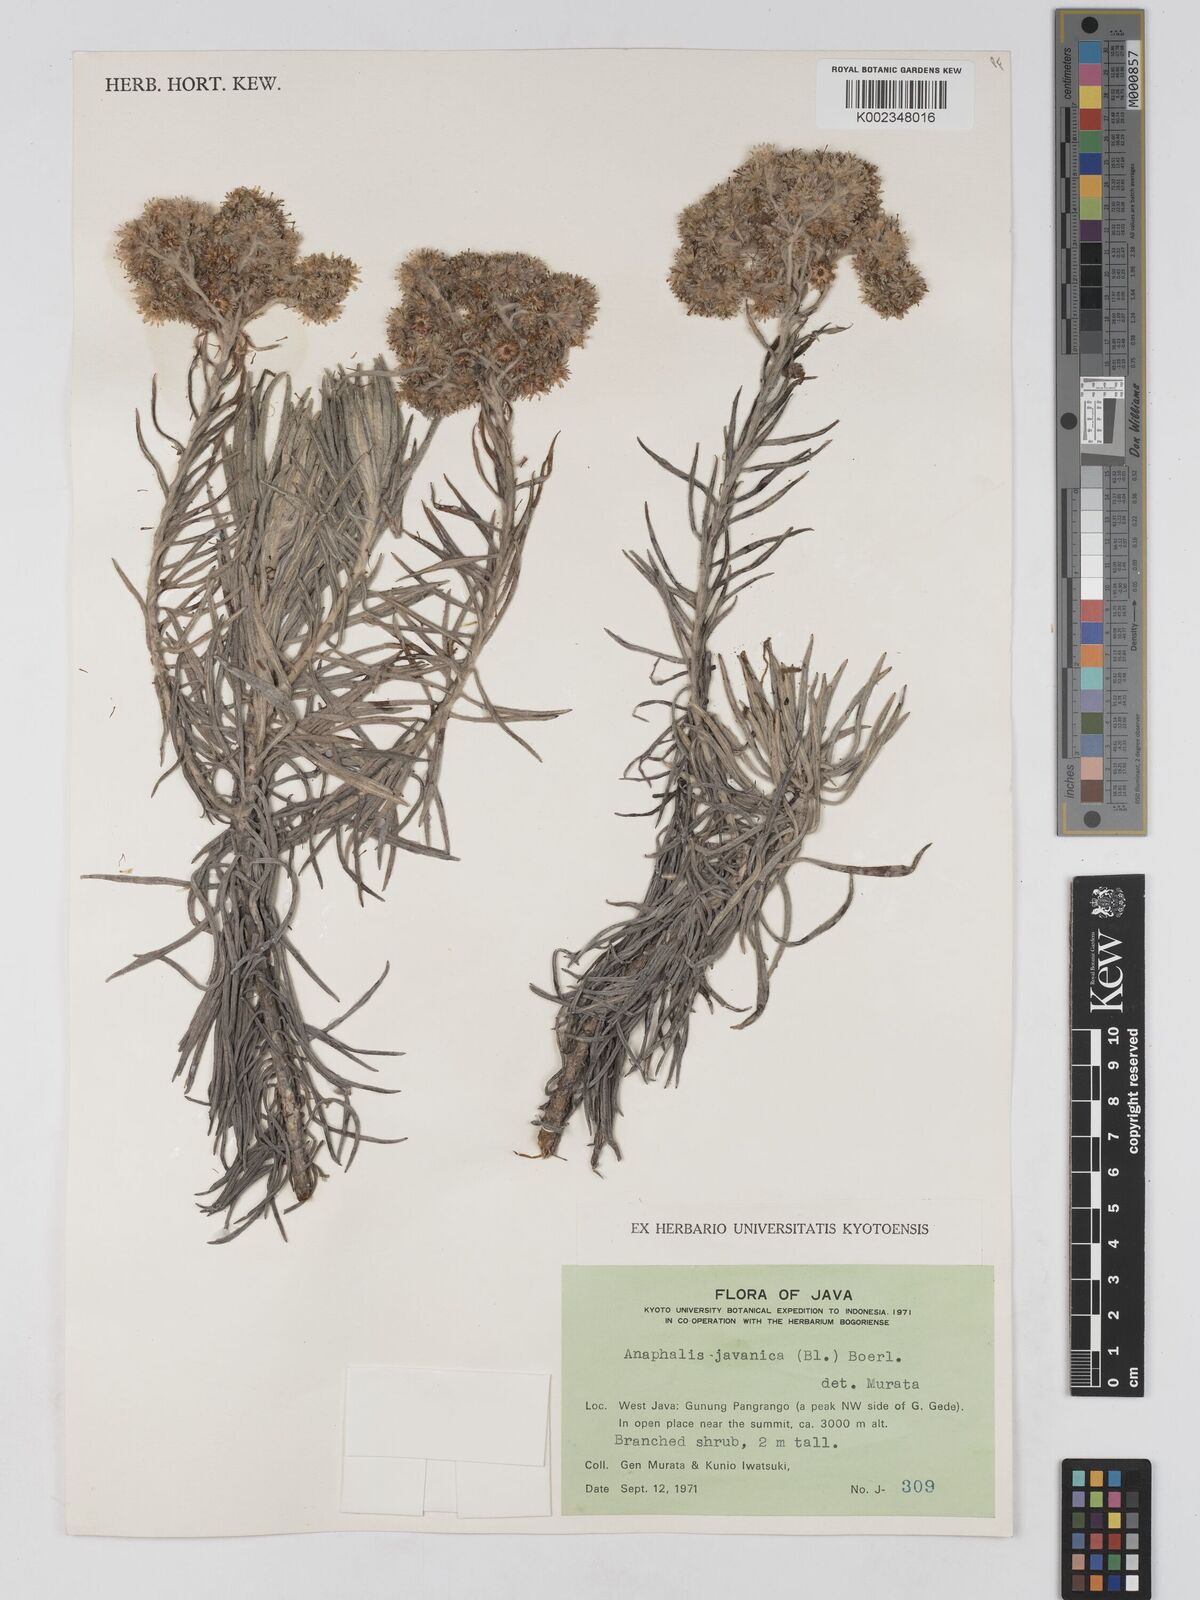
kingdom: Plantae
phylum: Tracheophyta
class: Magnoliopsida
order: Asterales
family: Asteraceae
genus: Anaphalis
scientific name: Anaphalis javanica
